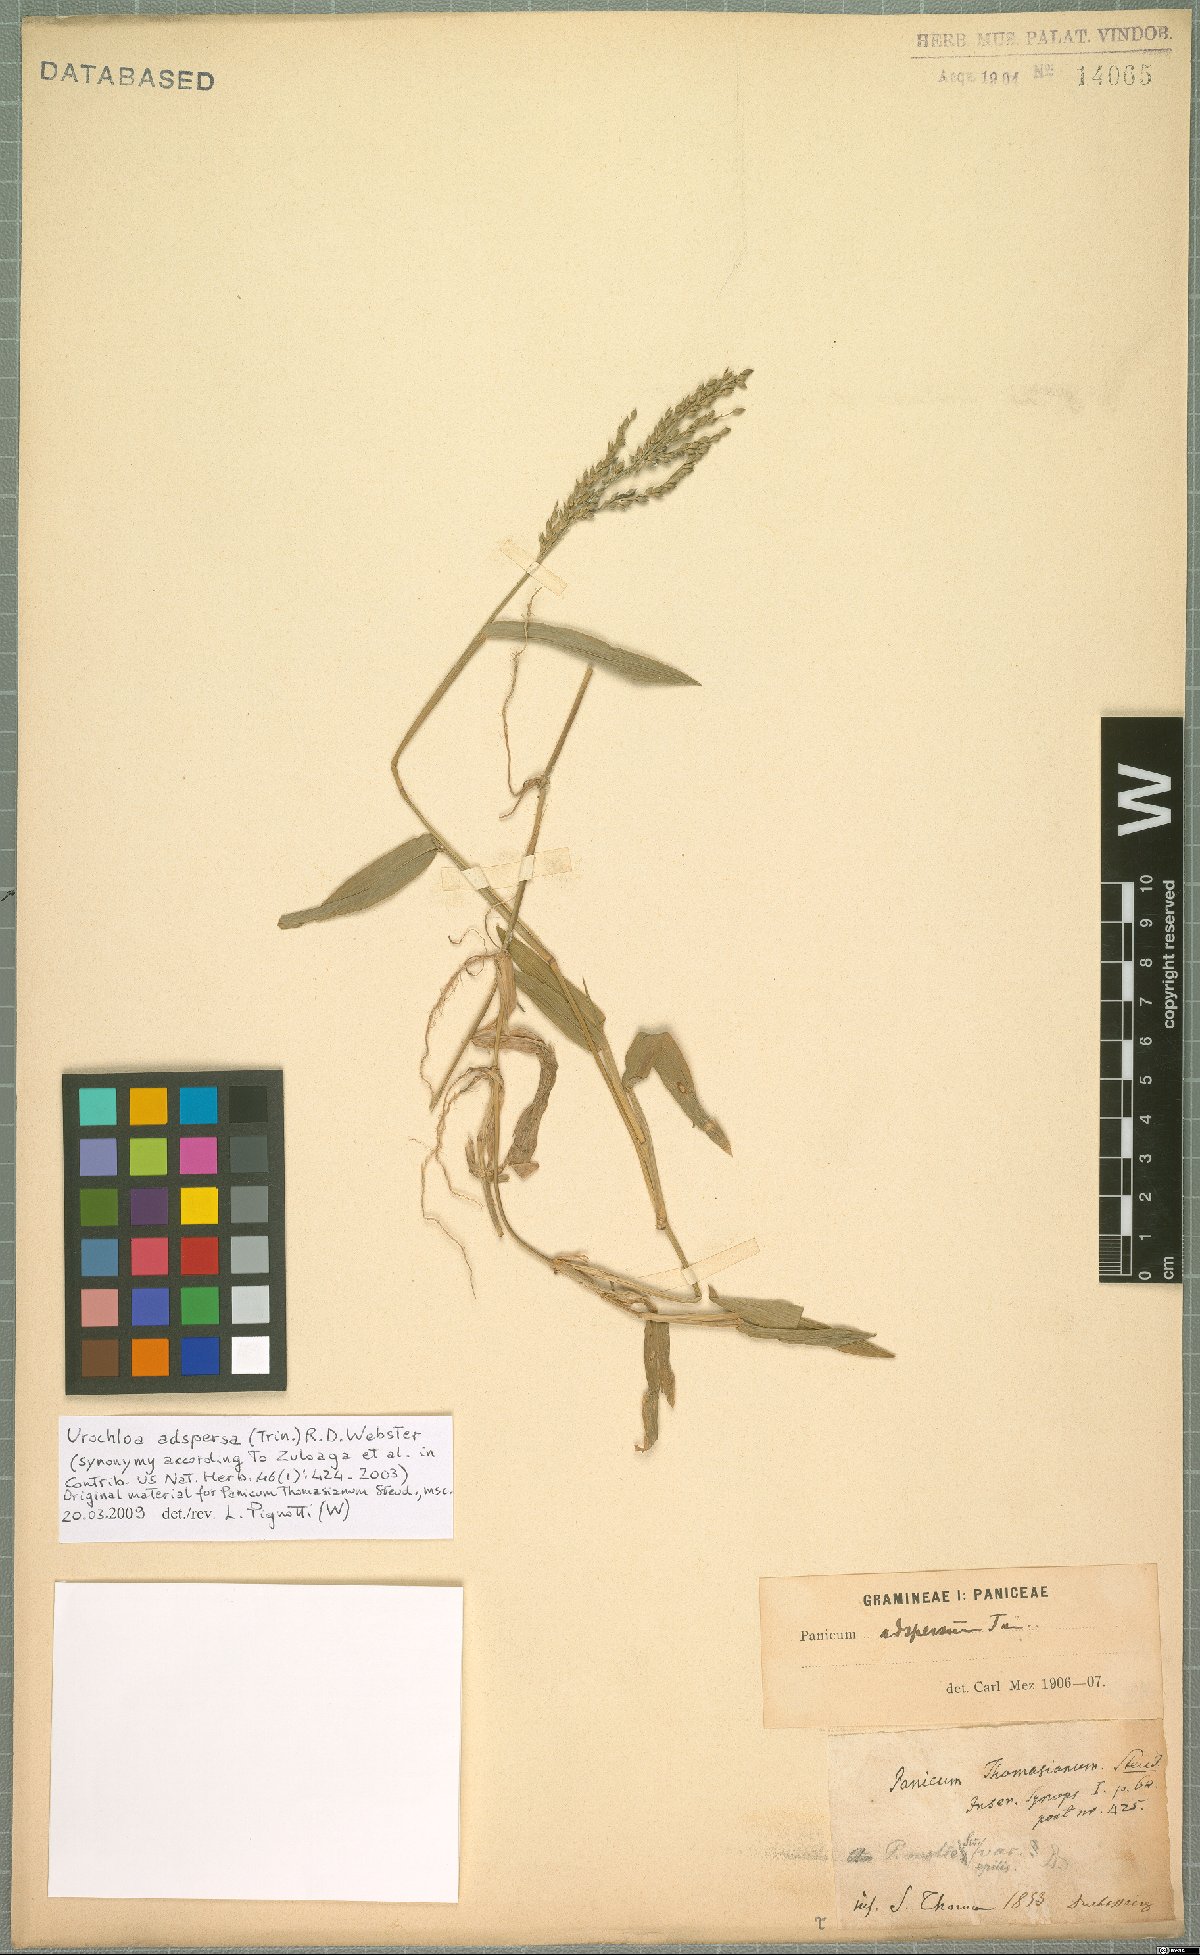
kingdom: Plantae
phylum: Tracheophyta
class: Liliopsida
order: Poales
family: Poaceae
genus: Urochloa
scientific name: Urochloa adspersa
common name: Dominican signal grass
